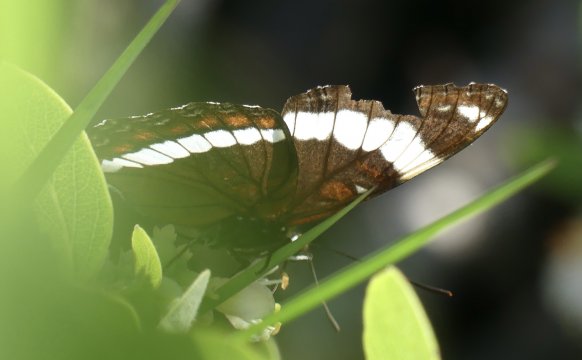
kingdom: Animalia
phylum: Arthropoda
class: Insecta
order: Lepidoptera
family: Nymphalidae
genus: Limenitis
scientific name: Limenitis arthemis
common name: Red-spotted Admiral
